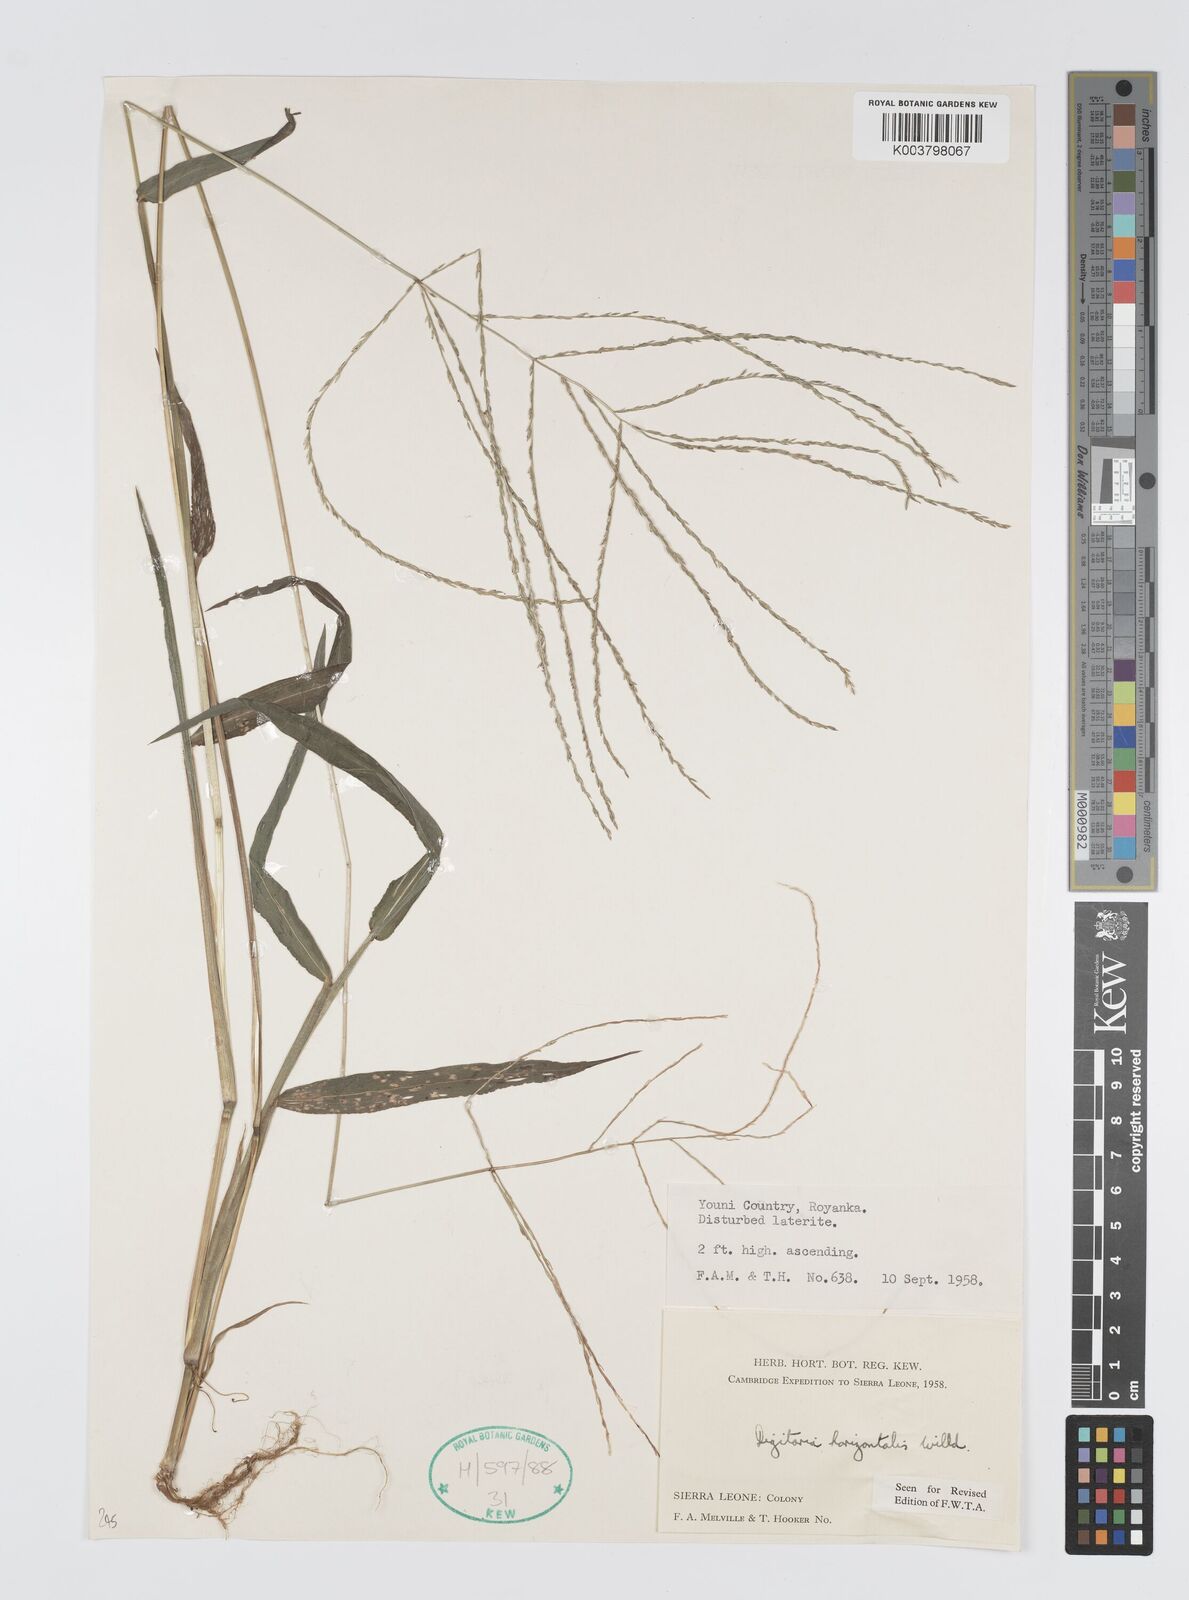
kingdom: Plantae
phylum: Tracheophyta
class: Liliopsida
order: Poales
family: Poaceae
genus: Digitaria
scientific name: Digitaria horizontalis
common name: Jamaican crabgrass
